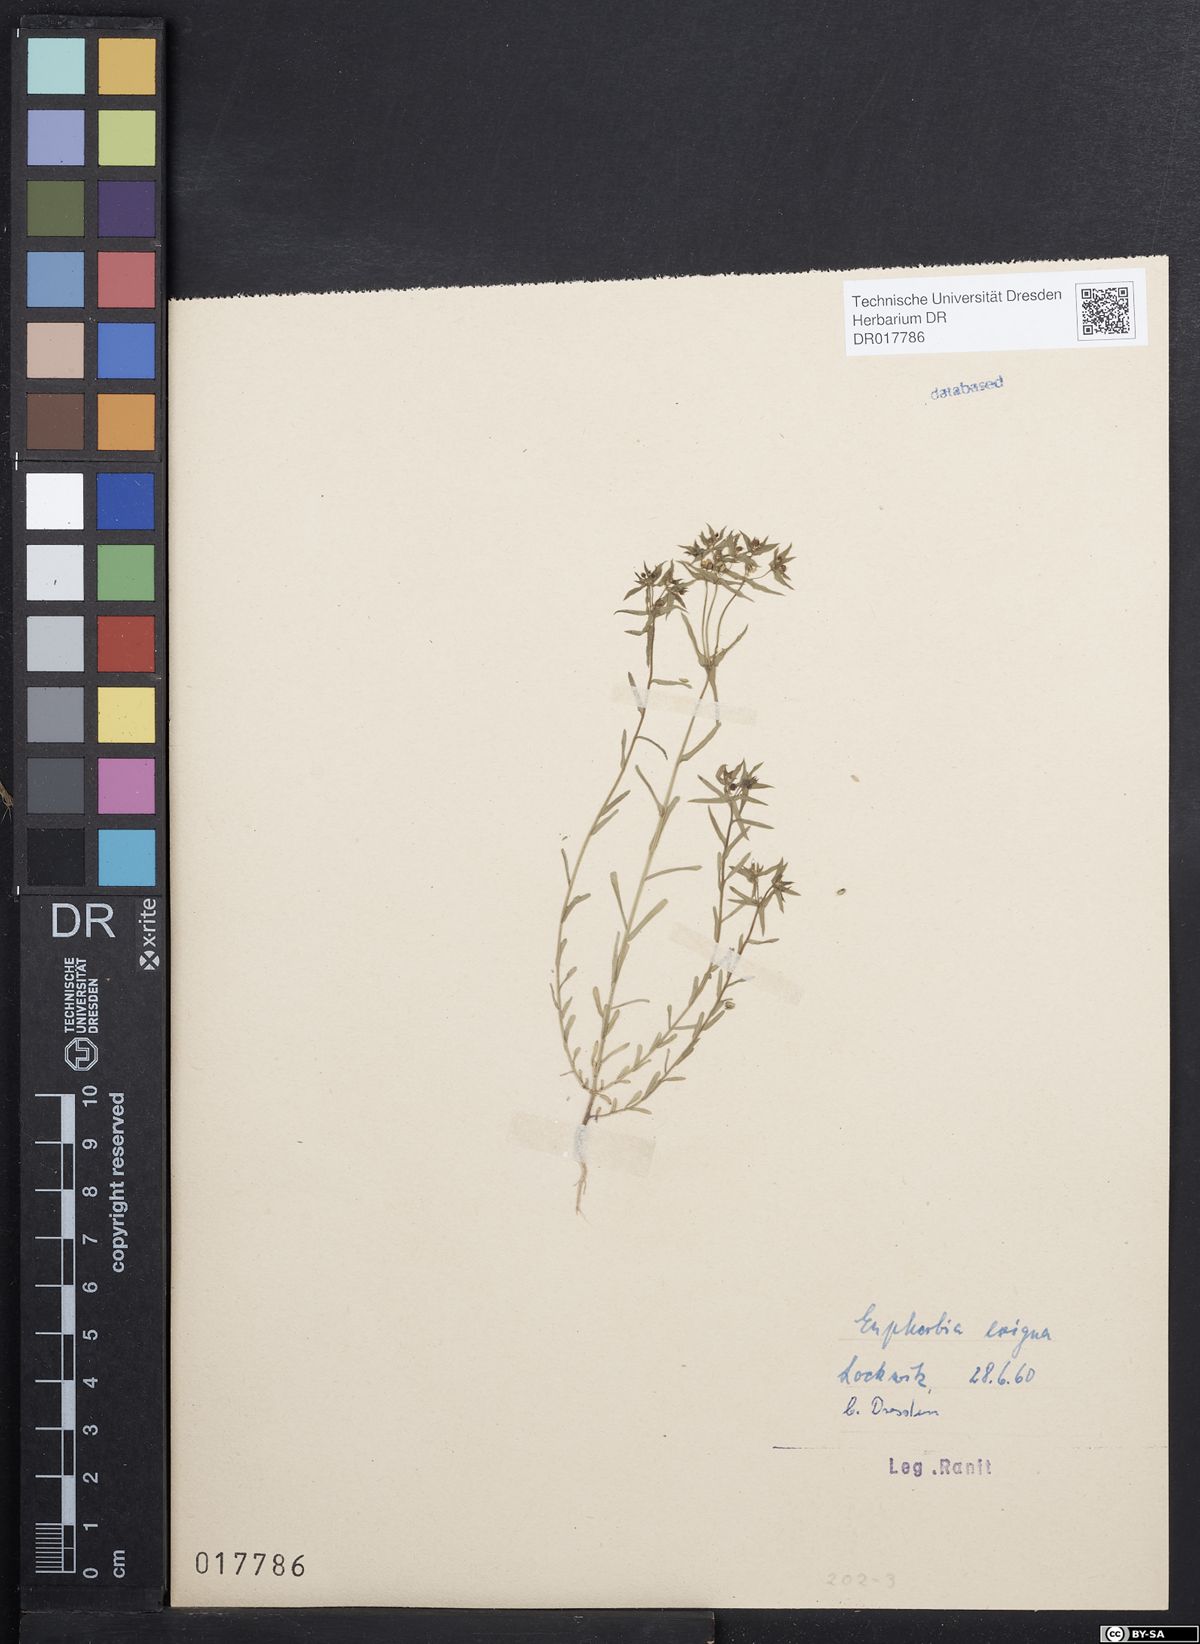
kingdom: Plantae
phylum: Tracheophyta
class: Magnoliopsida
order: Malpighiales
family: Euphorbiaceae
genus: Euphorbia
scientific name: Euphorbia exigua
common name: Dwarf spurge
